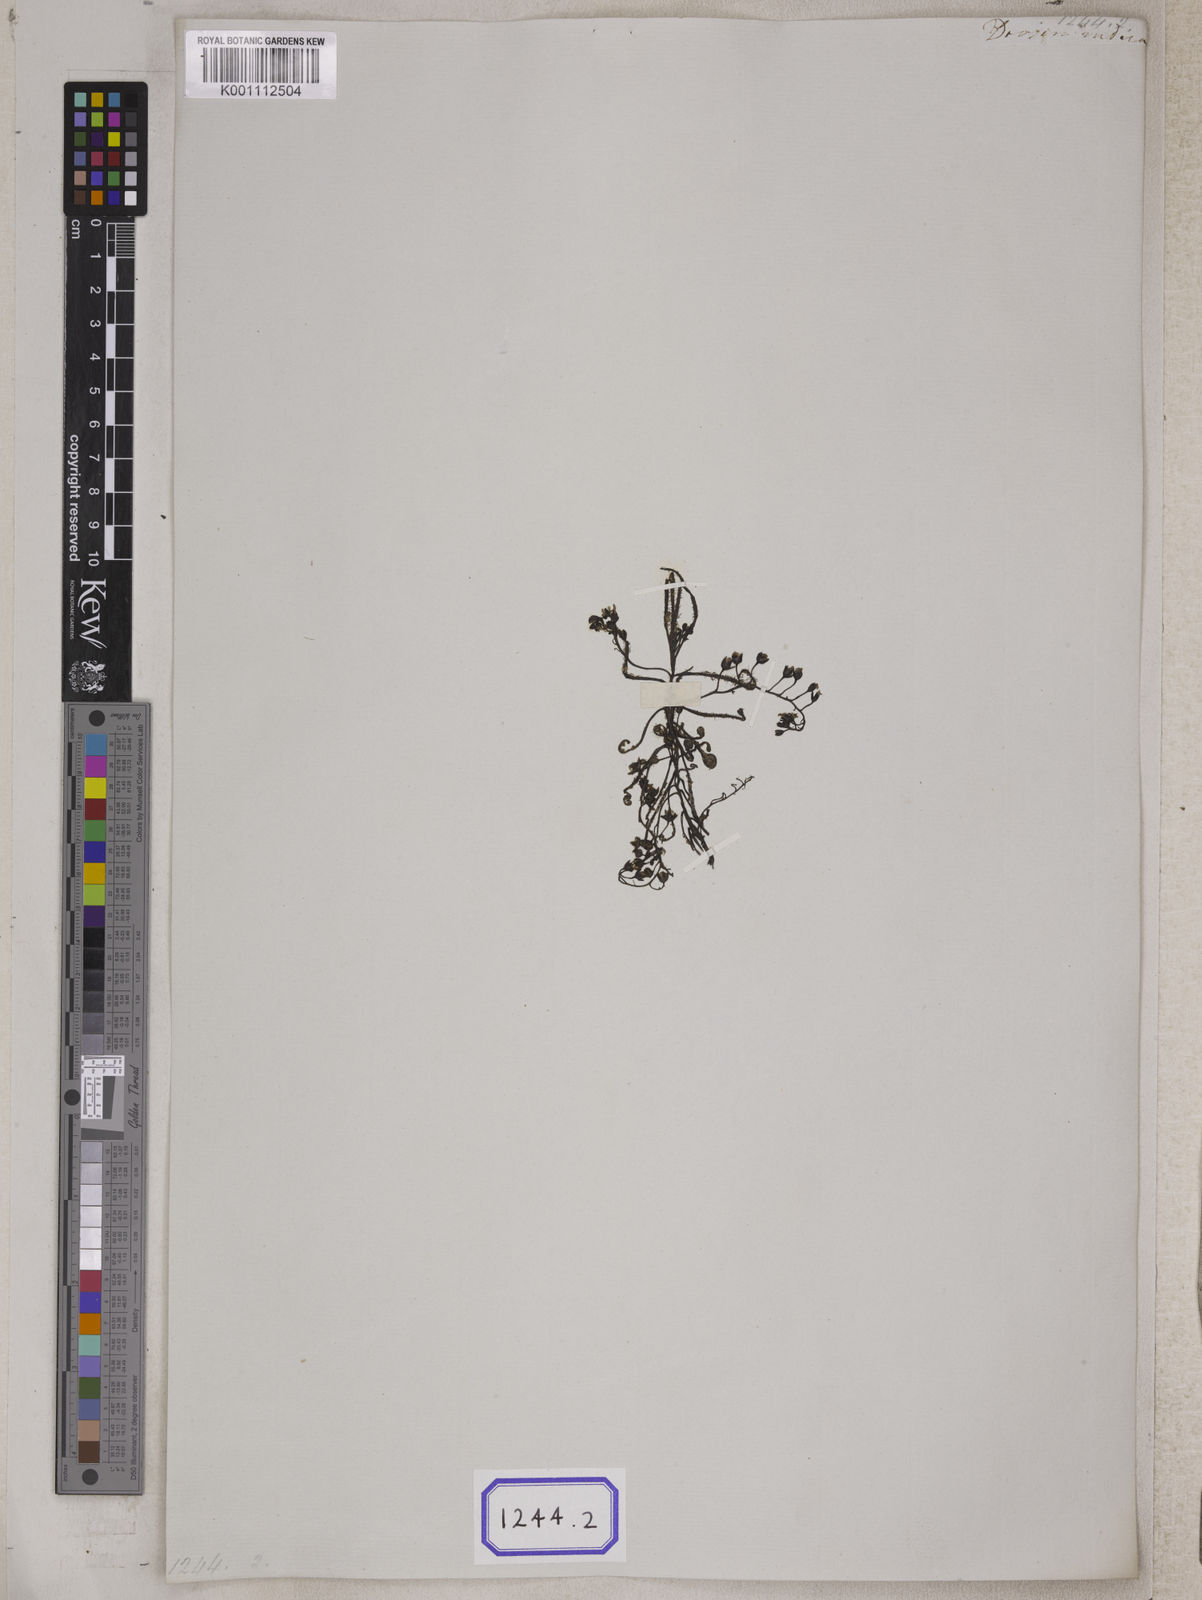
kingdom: Plantae
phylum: Tracheophyta
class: Magnoliopsida
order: Caryophyllales
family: Droseraceae
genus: Drosera
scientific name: Drosera indica
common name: Indian sundew
